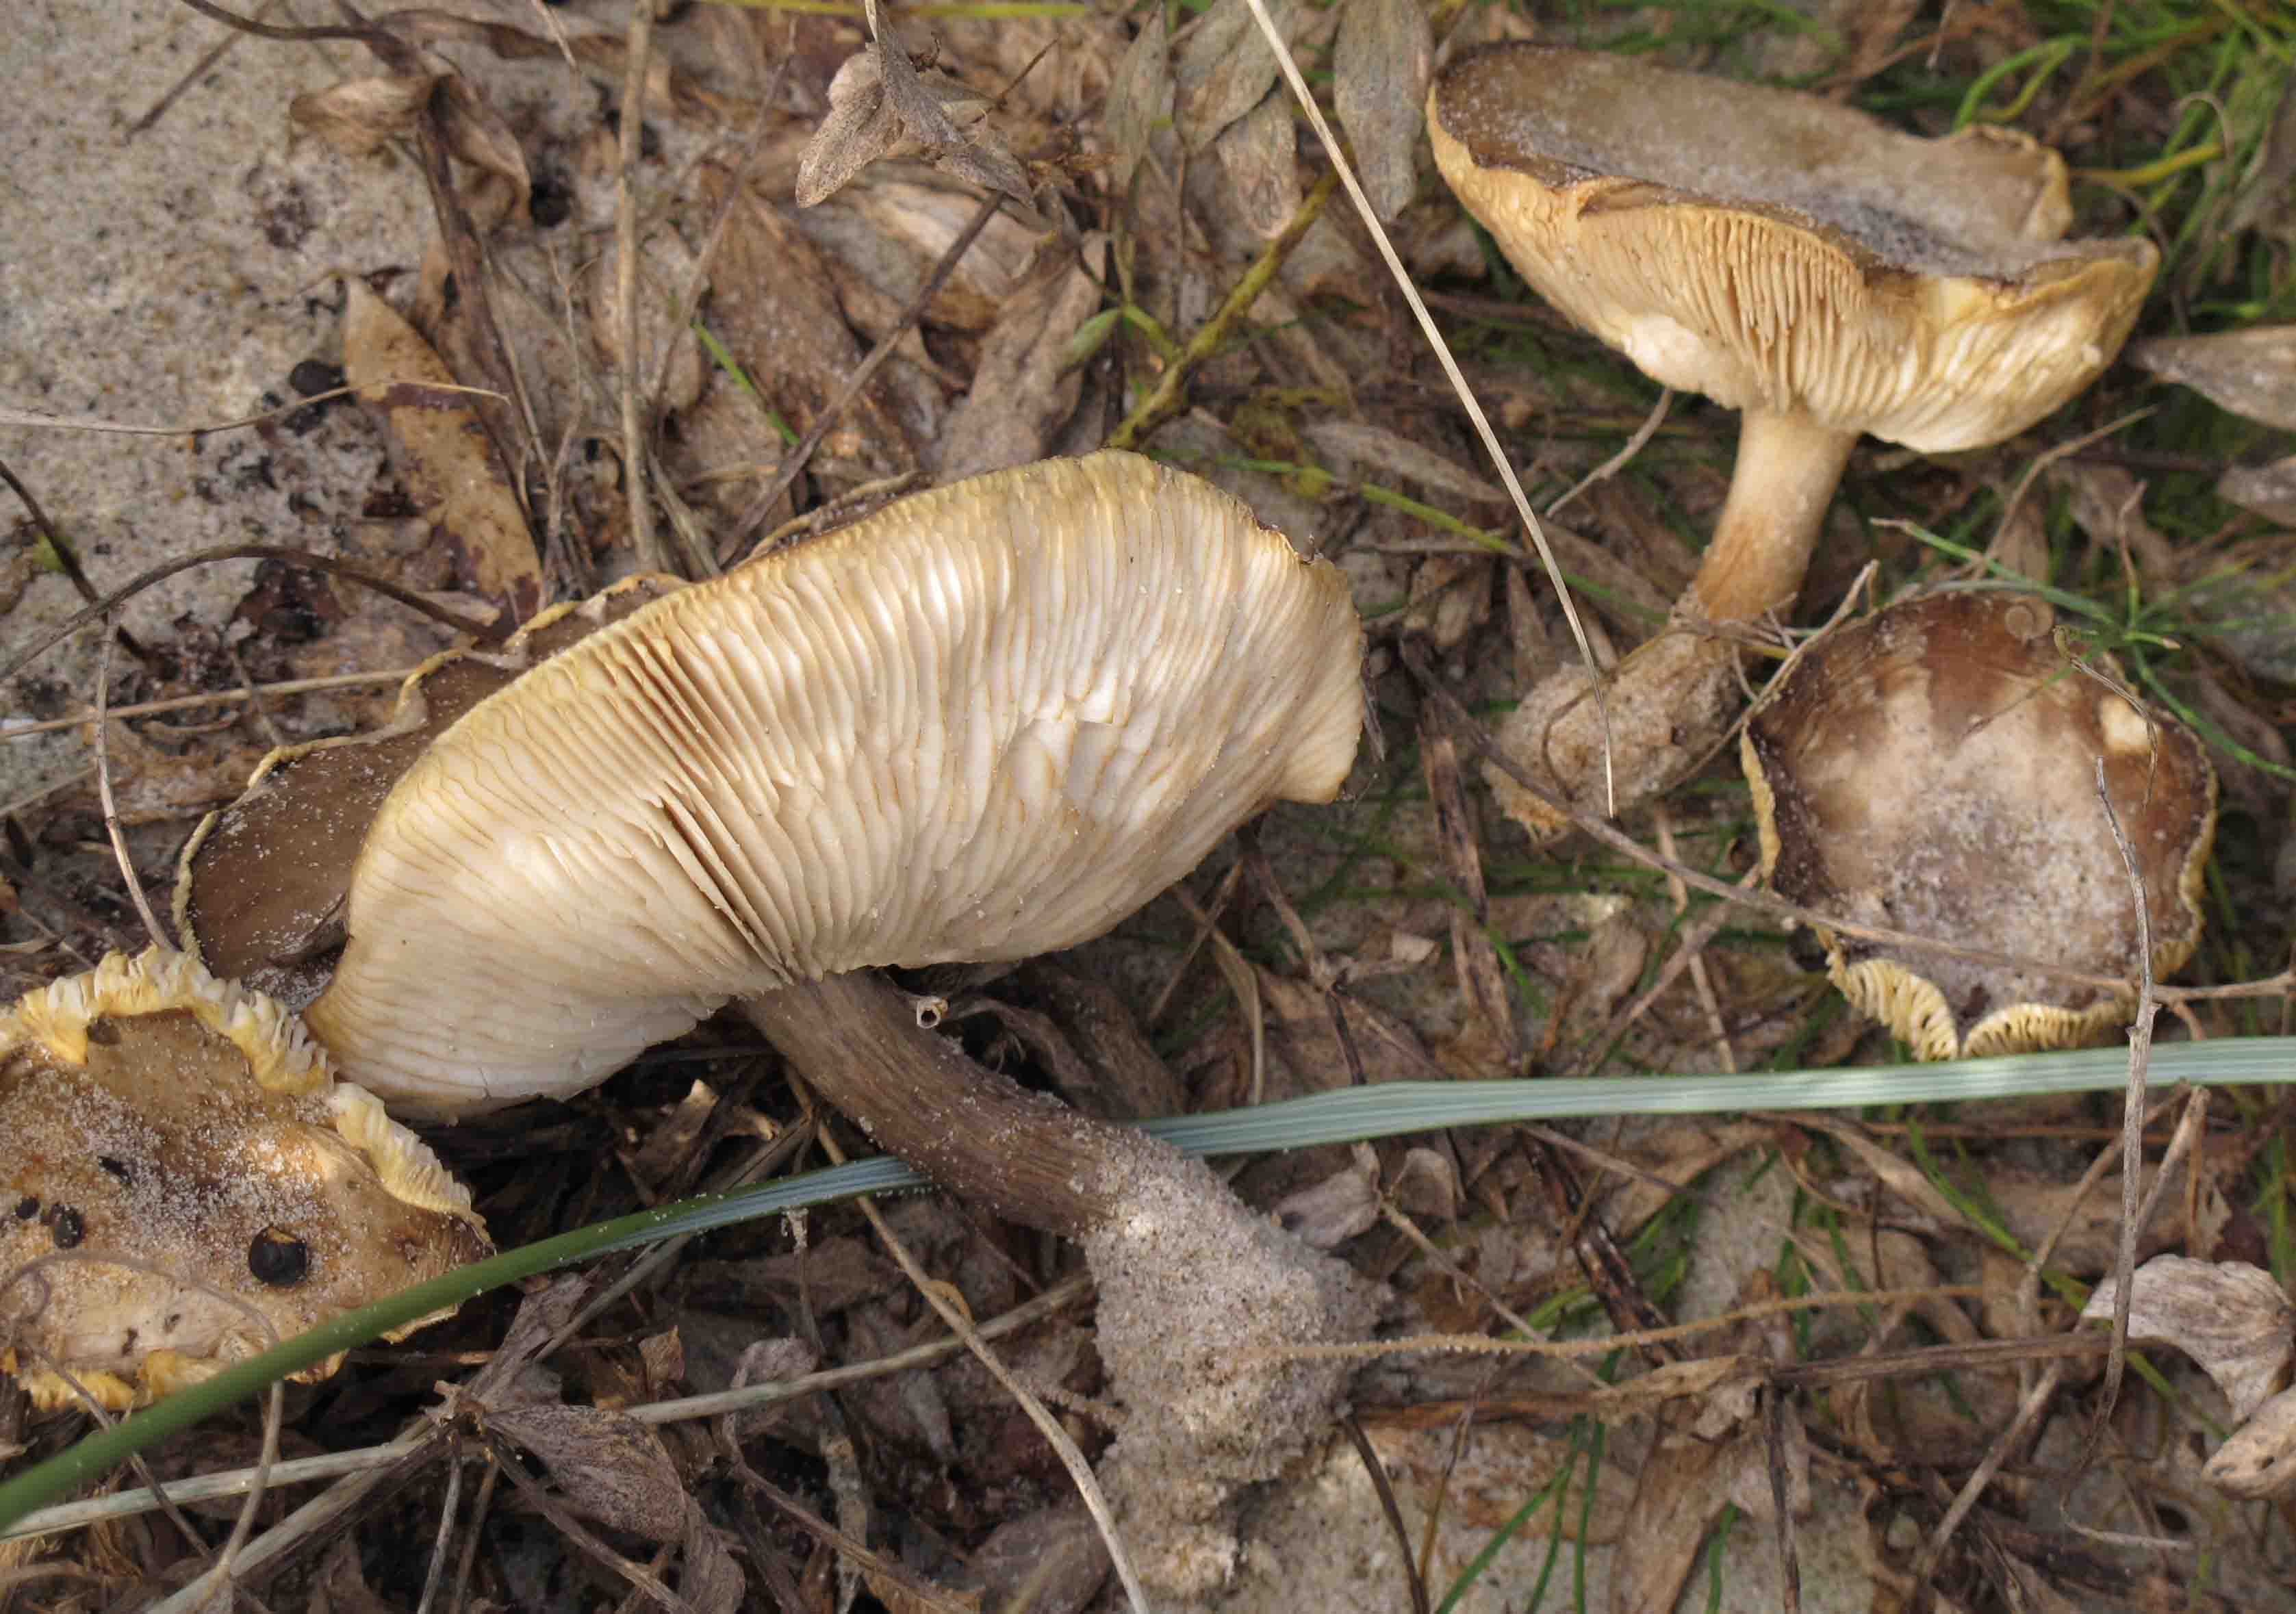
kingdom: Fungi
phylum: Basidiomycota
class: Agaricomycetes
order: Agaricales
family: Tricholomataceae
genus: Melanoleuca
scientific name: Melanoleuca polioleuca
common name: almindelig munkehat
